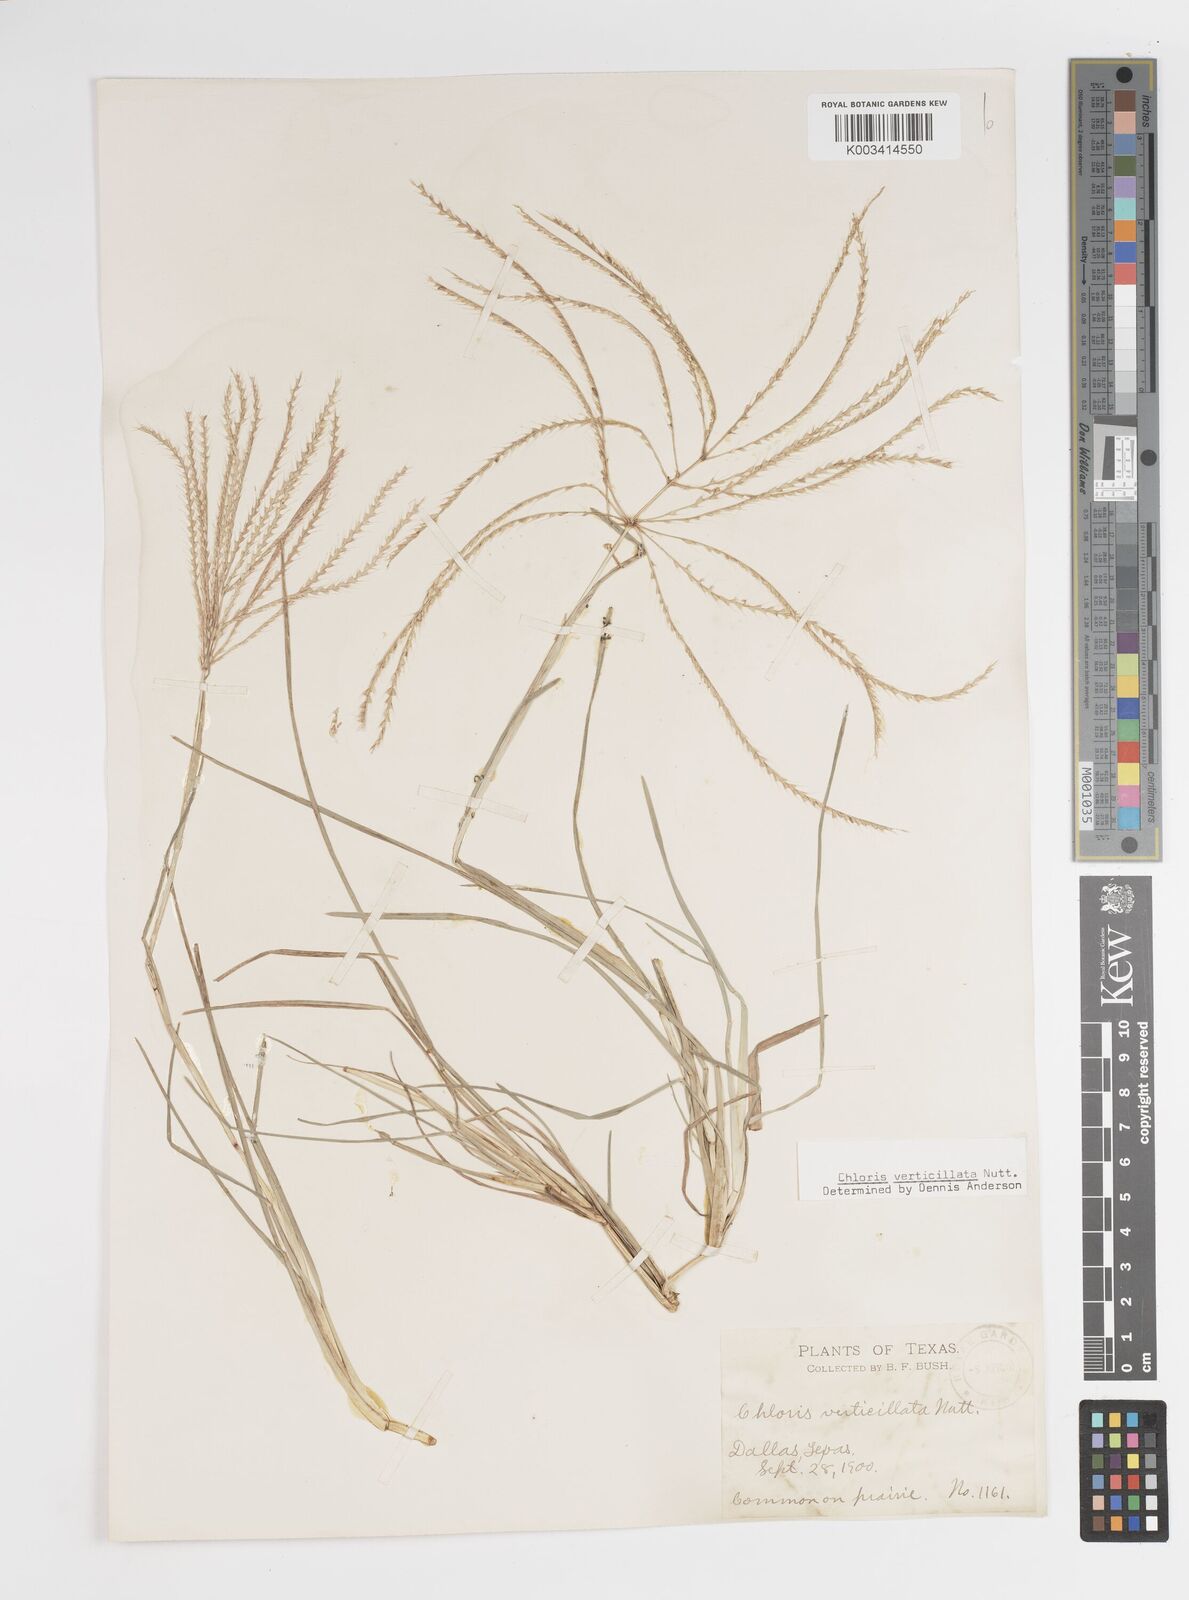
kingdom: Plantae
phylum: Tracheophyta
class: Liliopsida
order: Poales
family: Poaceae
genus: Chloris
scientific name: Chloris verticillata
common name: Tumble windmill grass
